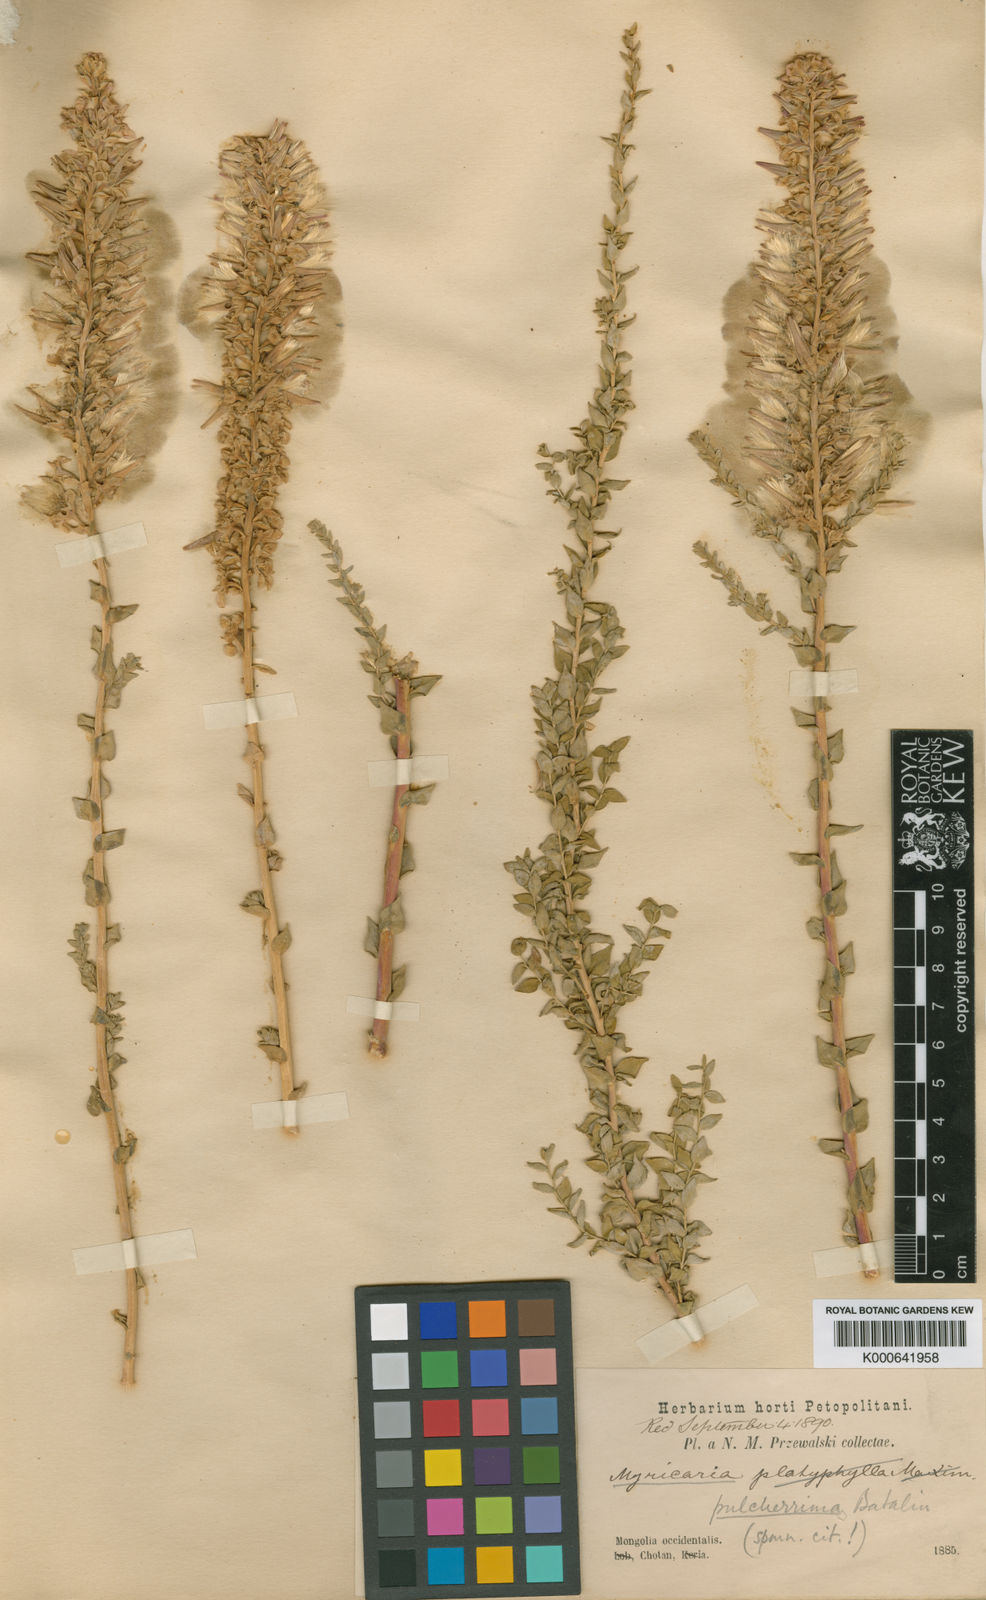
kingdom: Plantae
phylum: Tracheophyta
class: Magnoliopsida
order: Caryophyllales
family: Tamaricaceae
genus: Myricaria
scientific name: Myricaria pulcherrima
